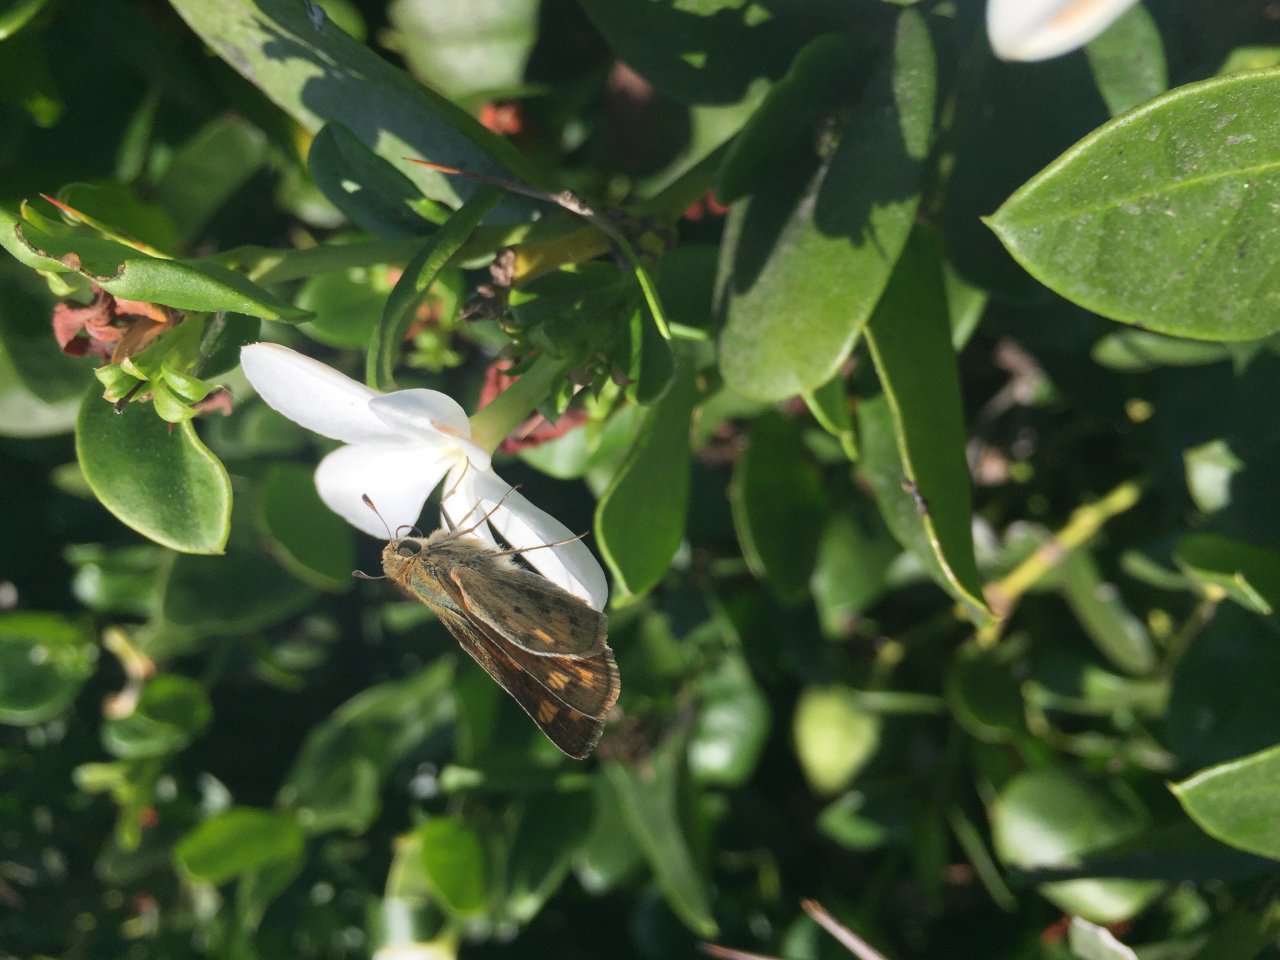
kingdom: Animalia
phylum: Arthropoda
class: Insecta
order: Lepidoptera
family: Hesperiidae
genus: Hylephila
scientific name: Hylephila phyleus
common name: Fiery Skipper
